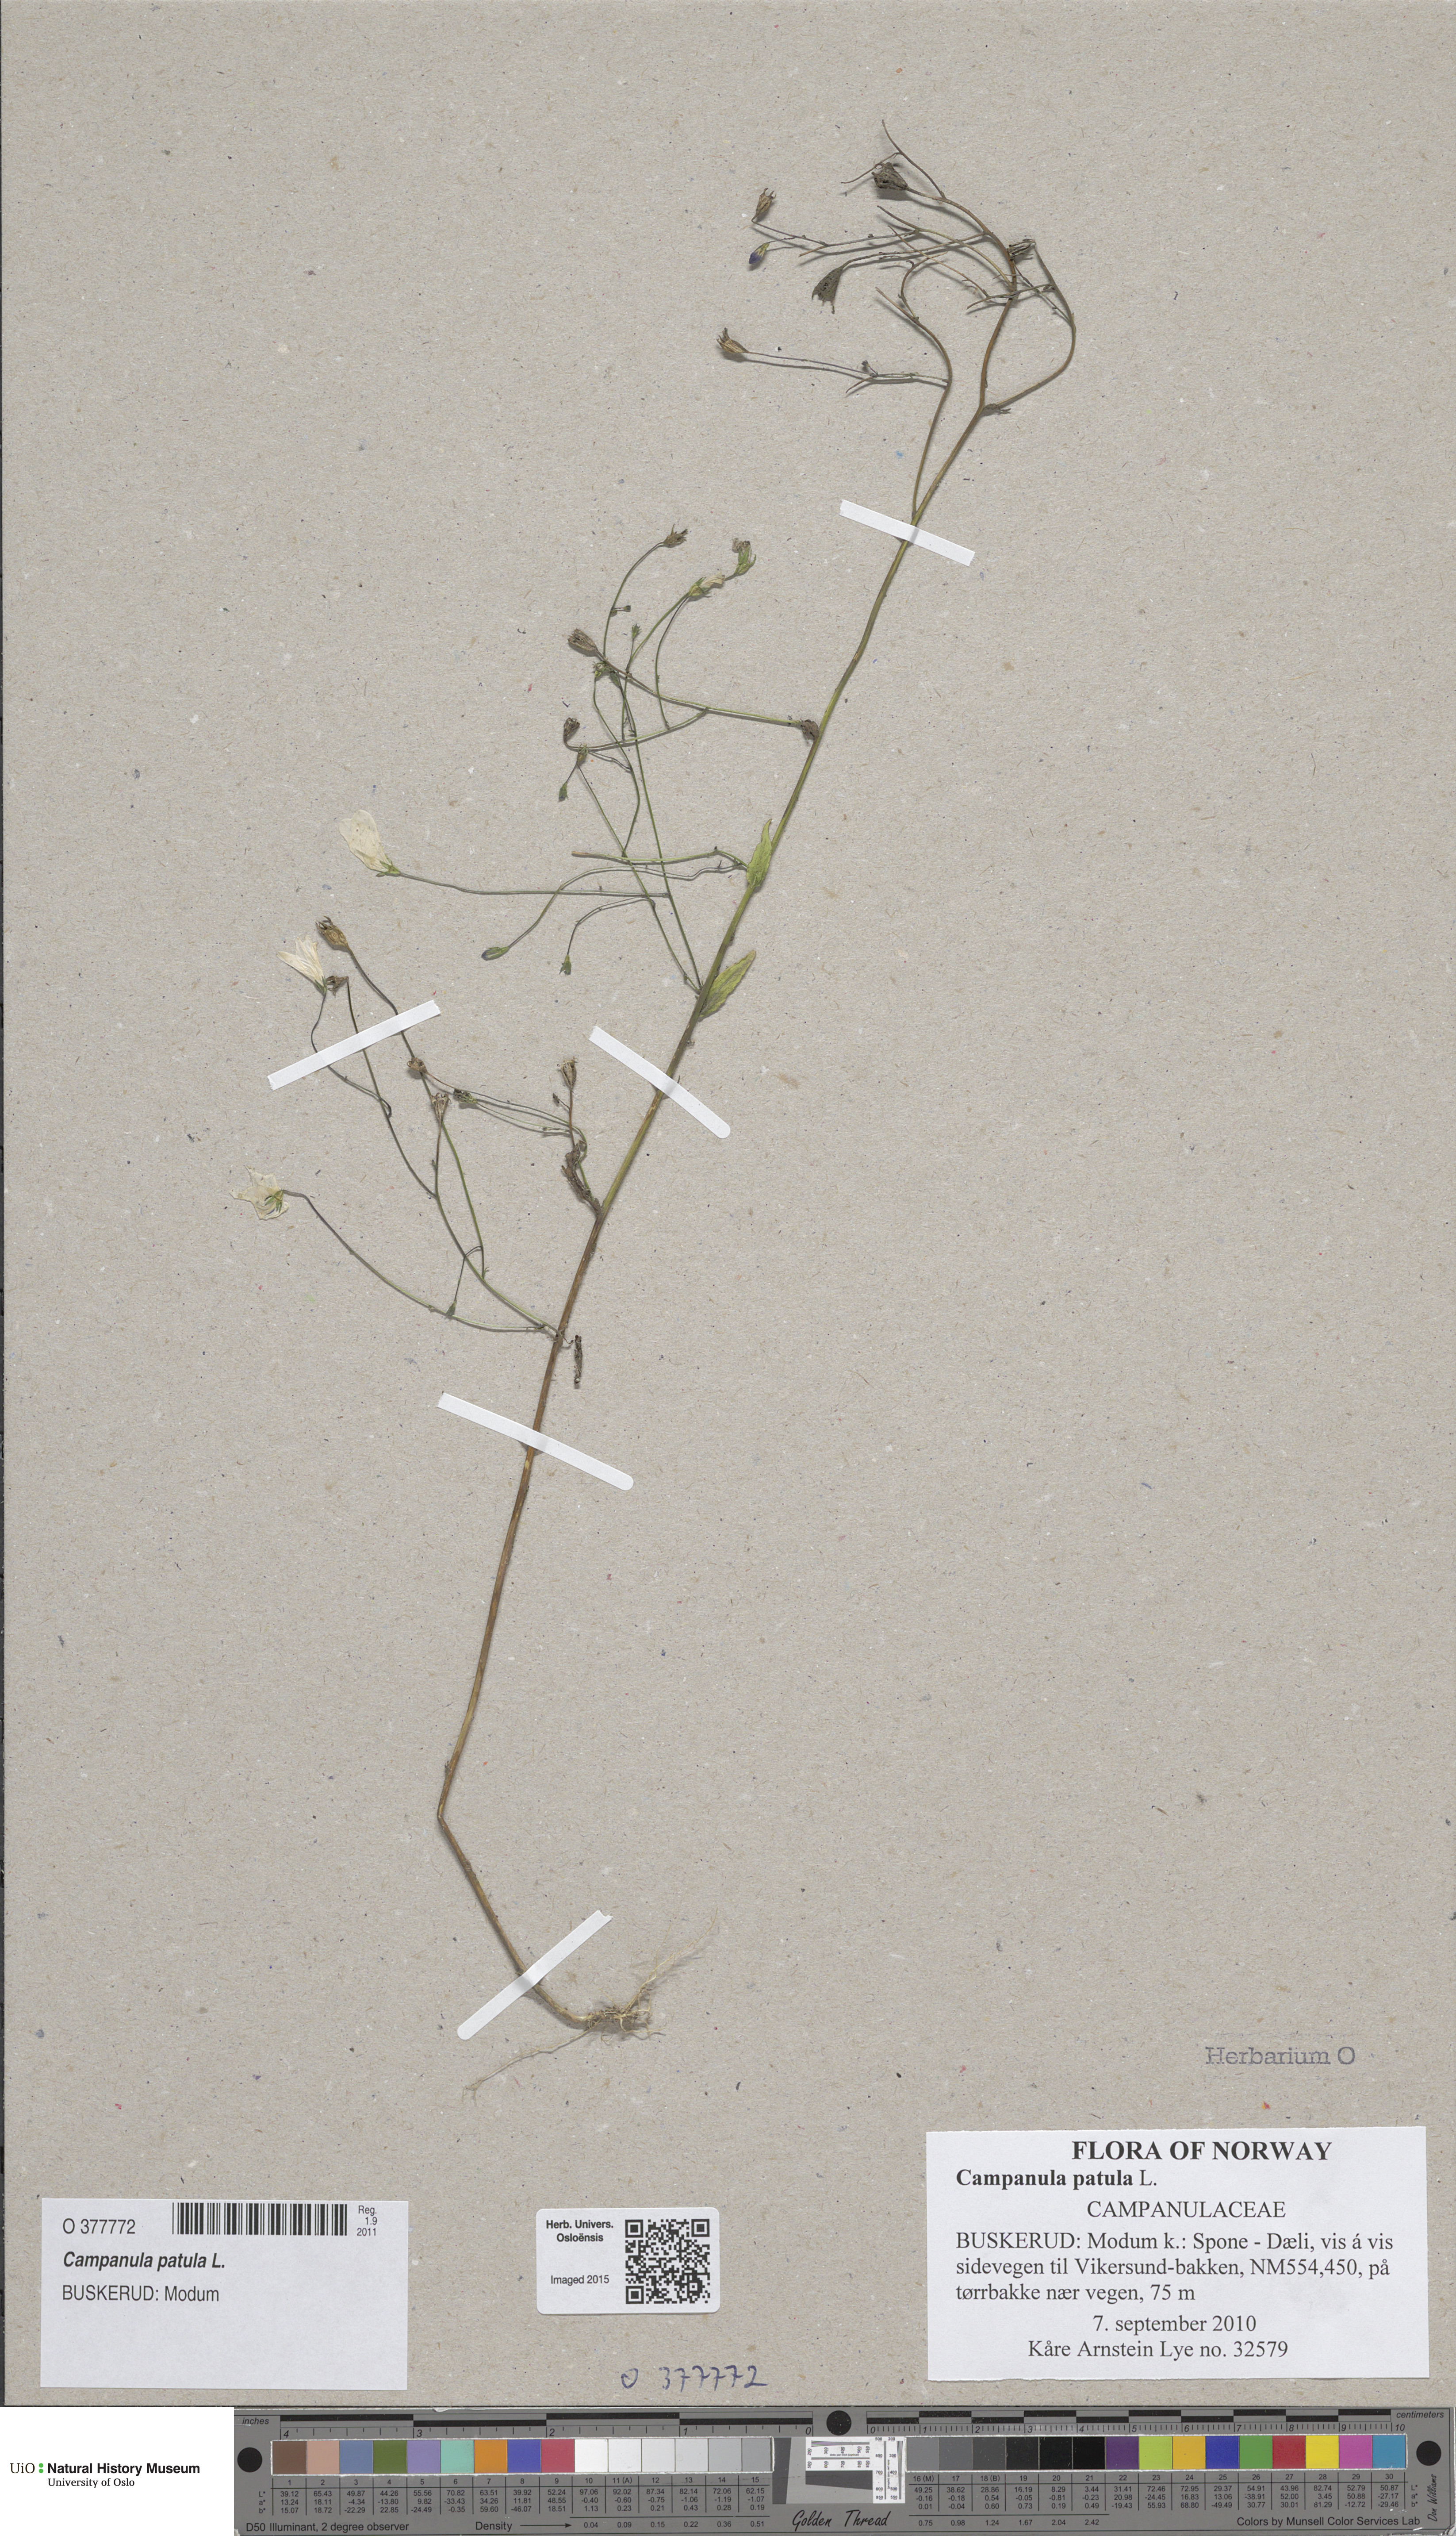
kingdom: Plantae
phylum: Tracheophyta
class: Magnoliopsida
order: Asterales
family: Campanulaceae
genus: Campanula
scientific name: Campanula patula
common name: Spreading bellflower
